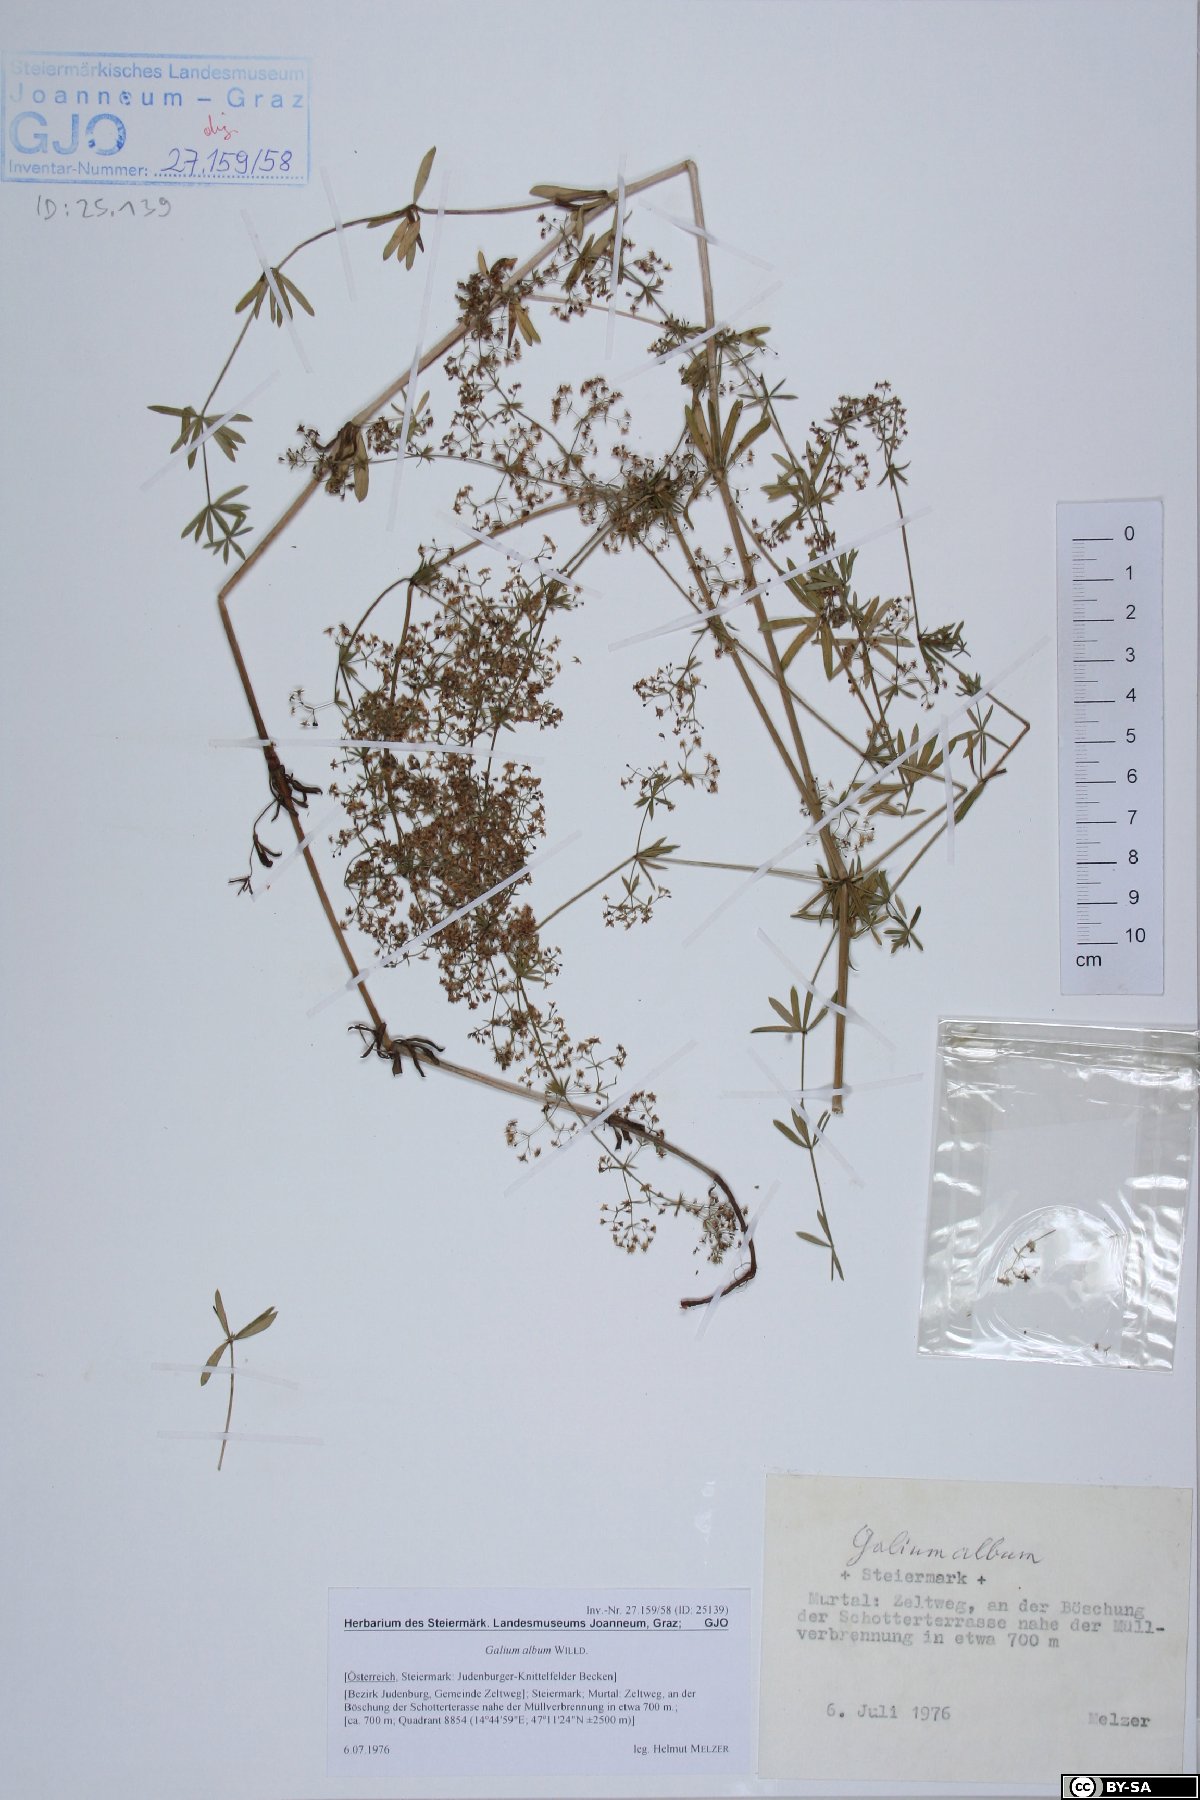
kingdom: Plantae
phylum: Tracheophyta
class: Magnoliopsida
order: Gentianales
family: Rubiaceae
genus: Galium
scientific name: Galium album
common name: White bedstraw
